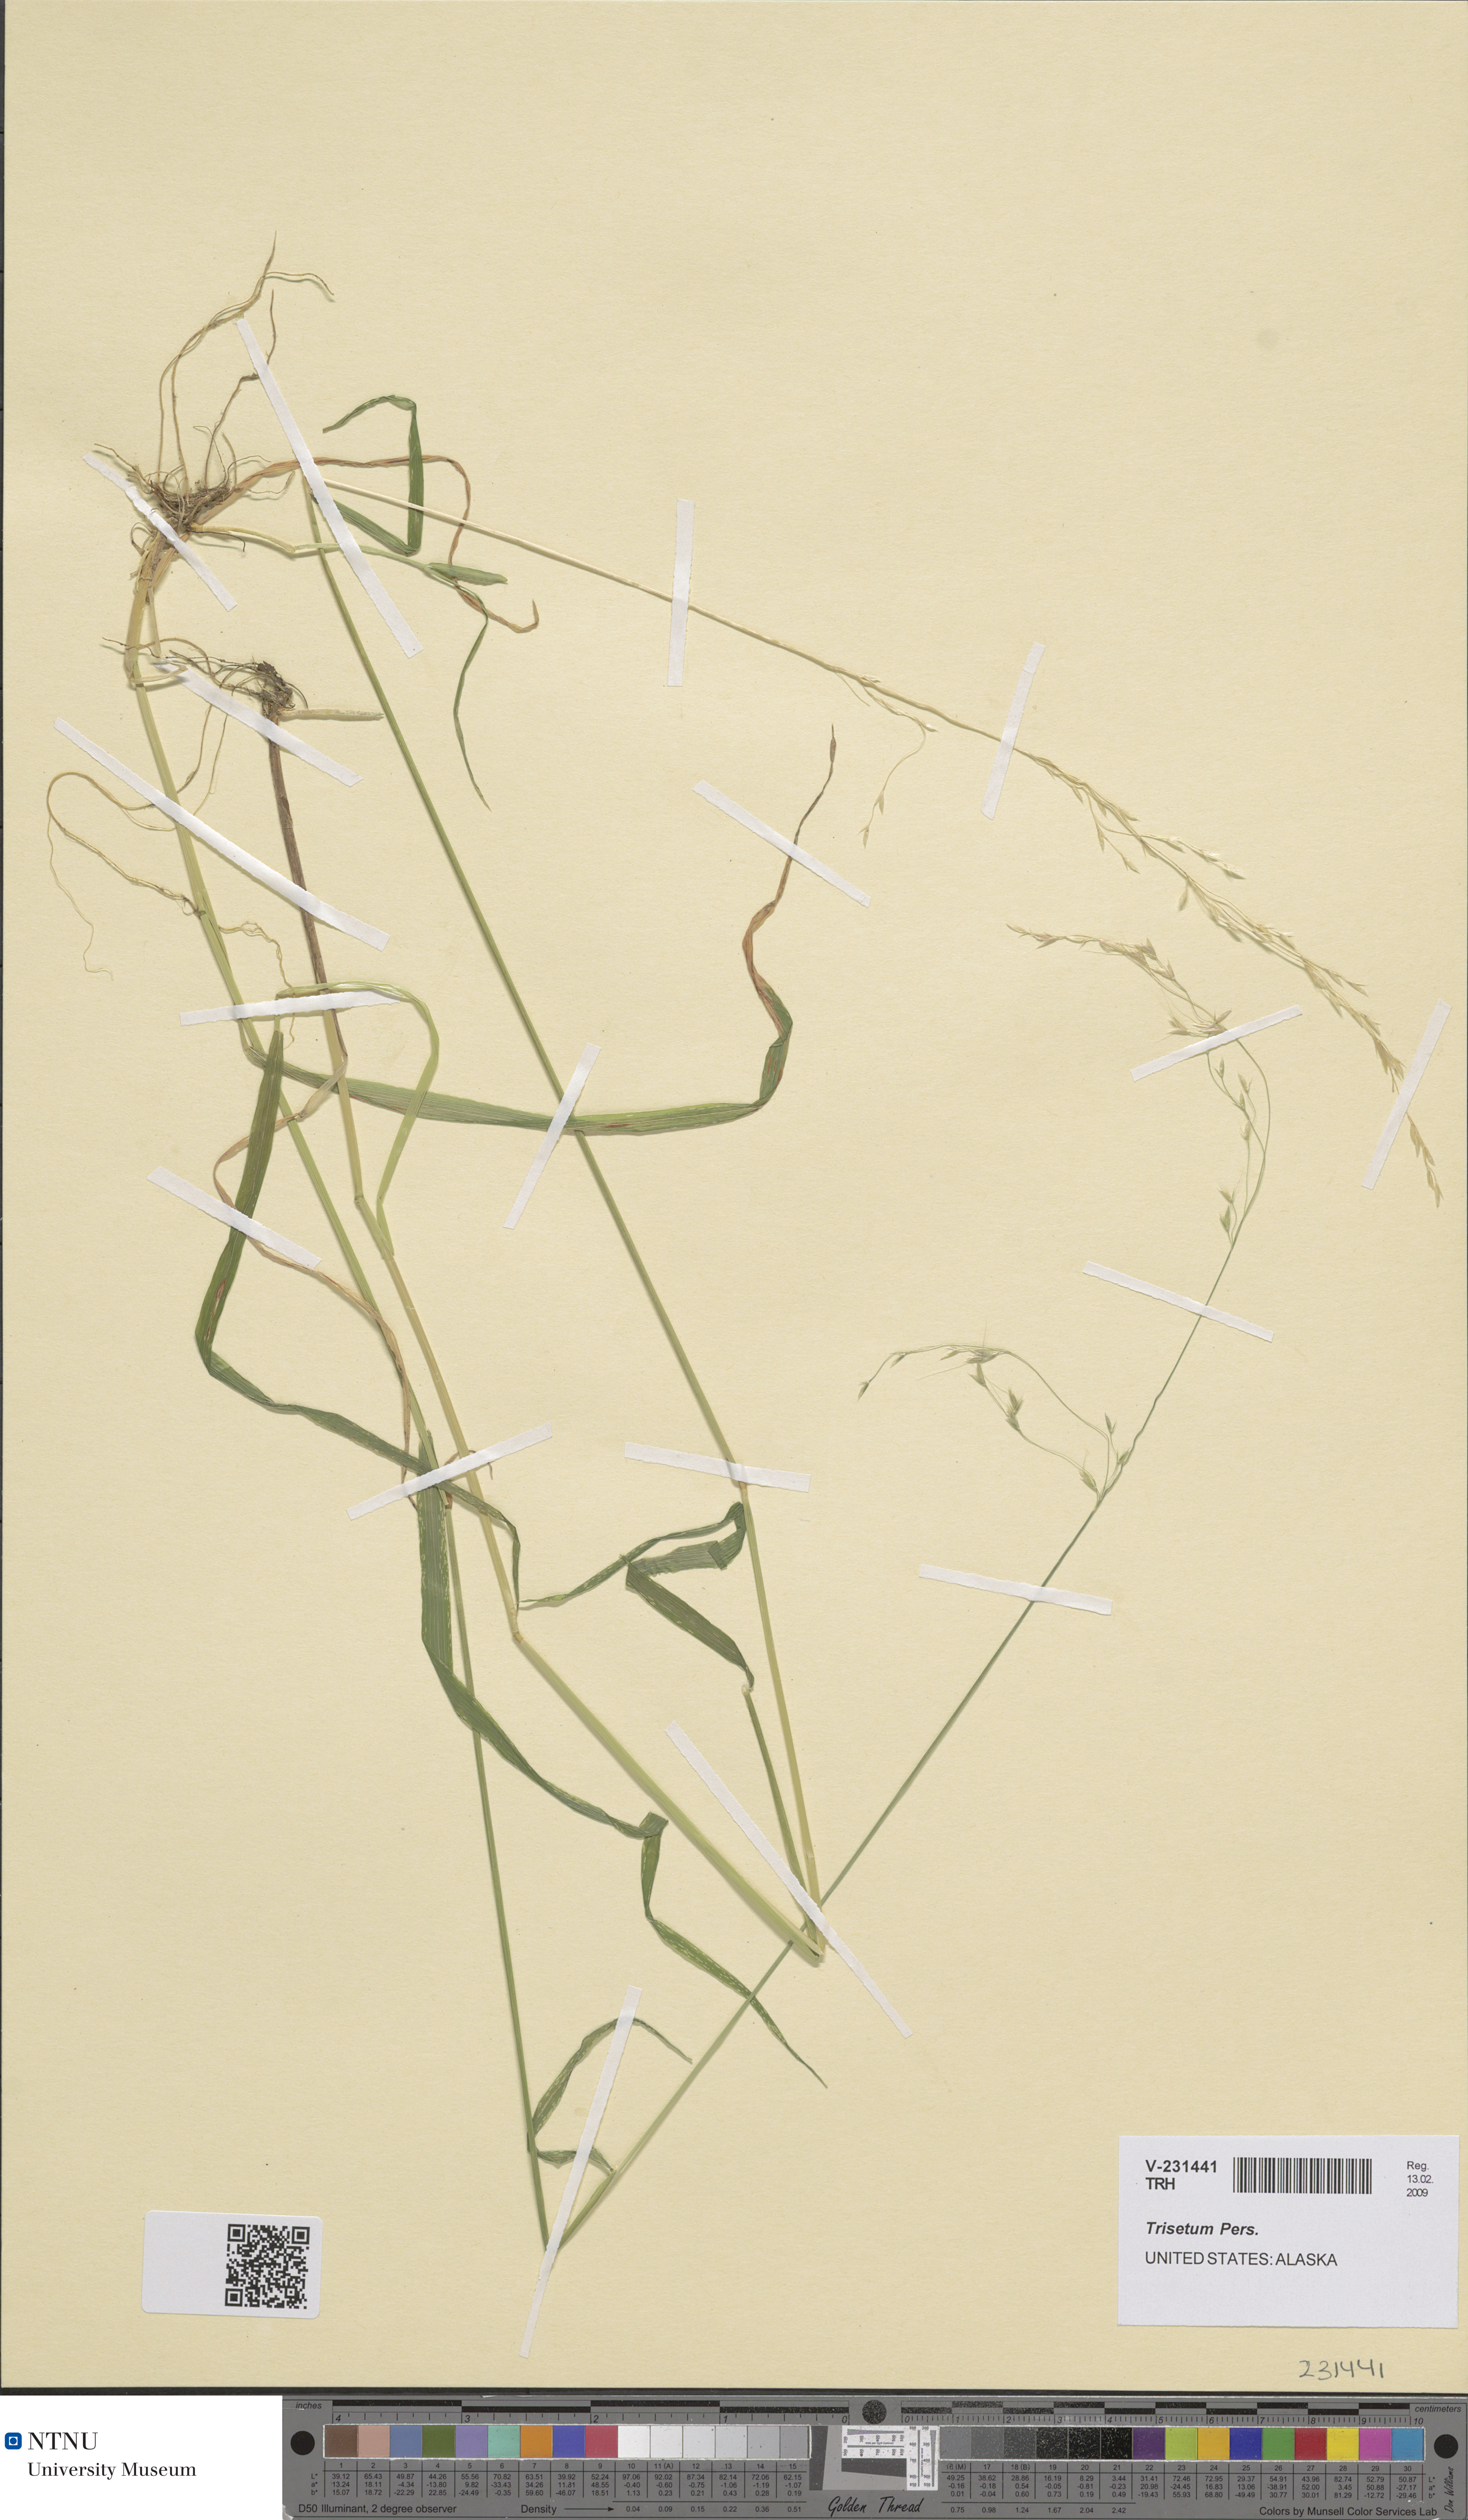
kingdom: Plantae
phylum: Tracheophyta
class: Liliopsida
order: Poales
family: Poaceae
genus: Trisetum
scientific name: Trisetum
